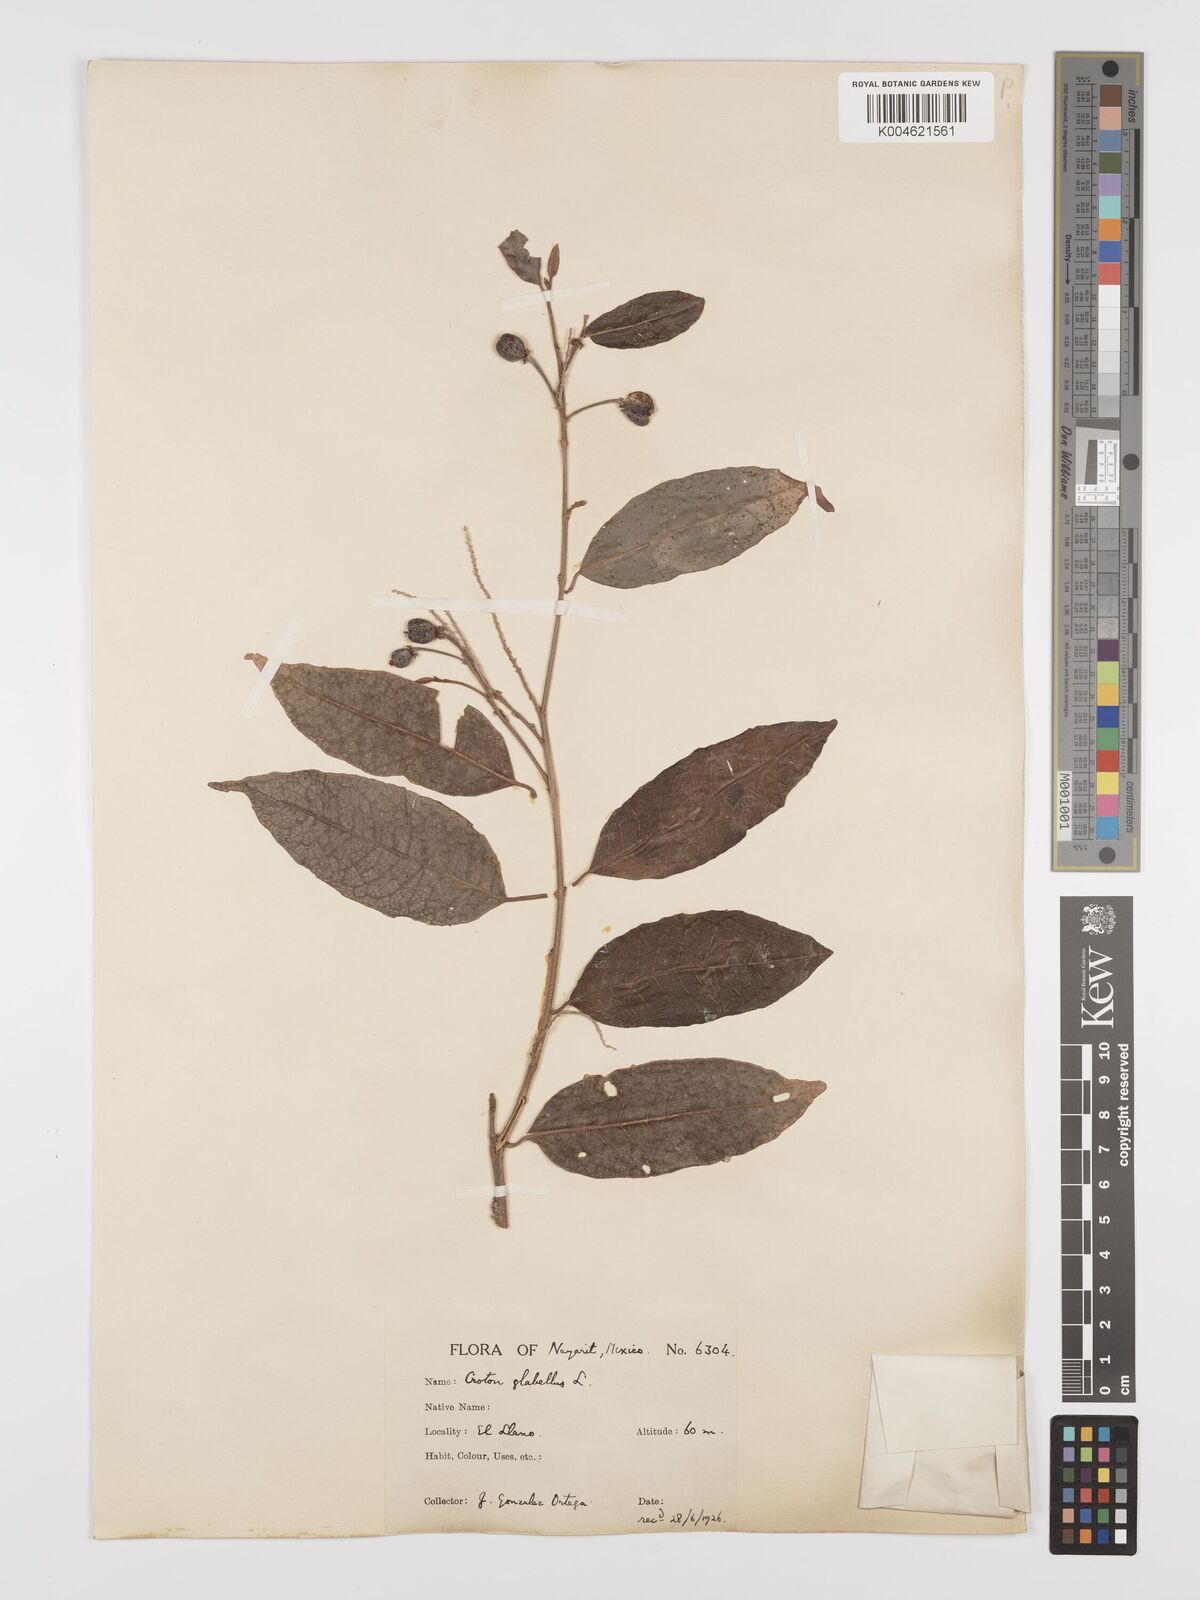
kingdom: Plantae
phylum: Tracheophyta
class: Magnoliopsida
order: Malpighiales
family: Euphorbiaceae
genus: Croton
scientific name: Croton glabellus
